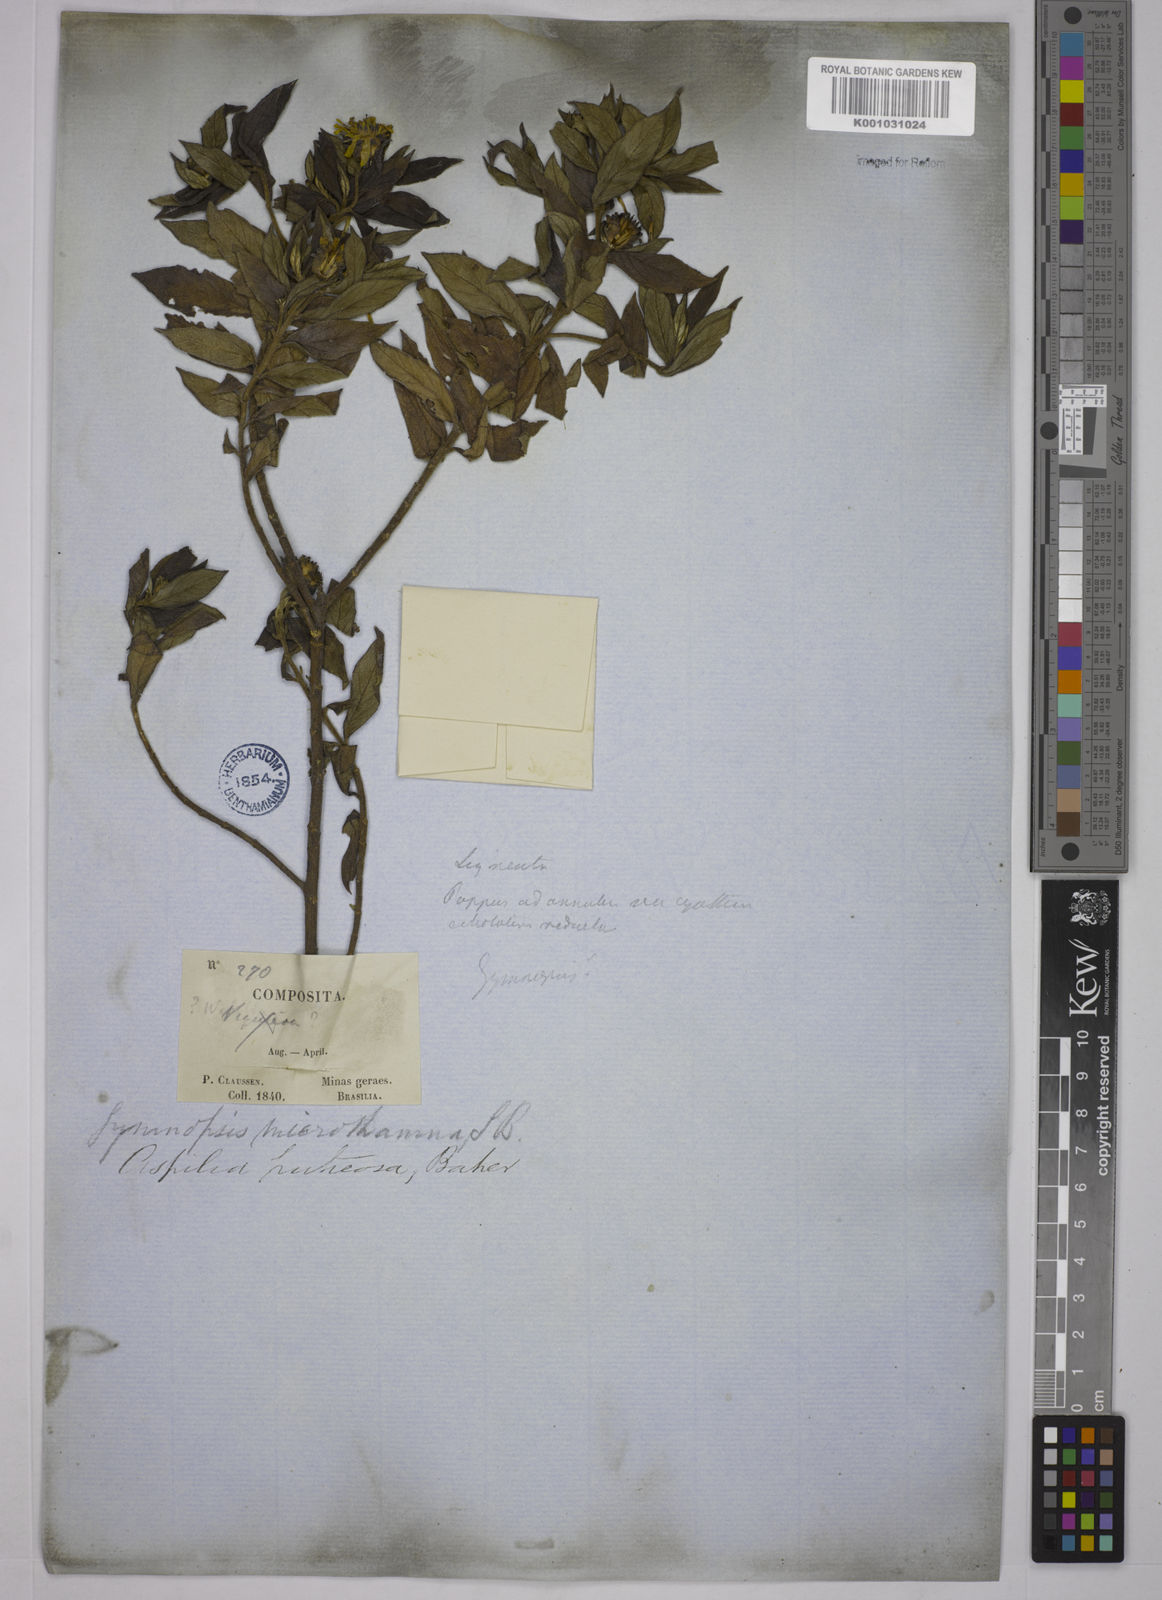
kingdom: Plantae
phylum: Tracheophyta
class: Magnoliopsida
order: Asterales
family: Asteraceae
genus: Wedelia
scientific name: Wedelia frustrata
